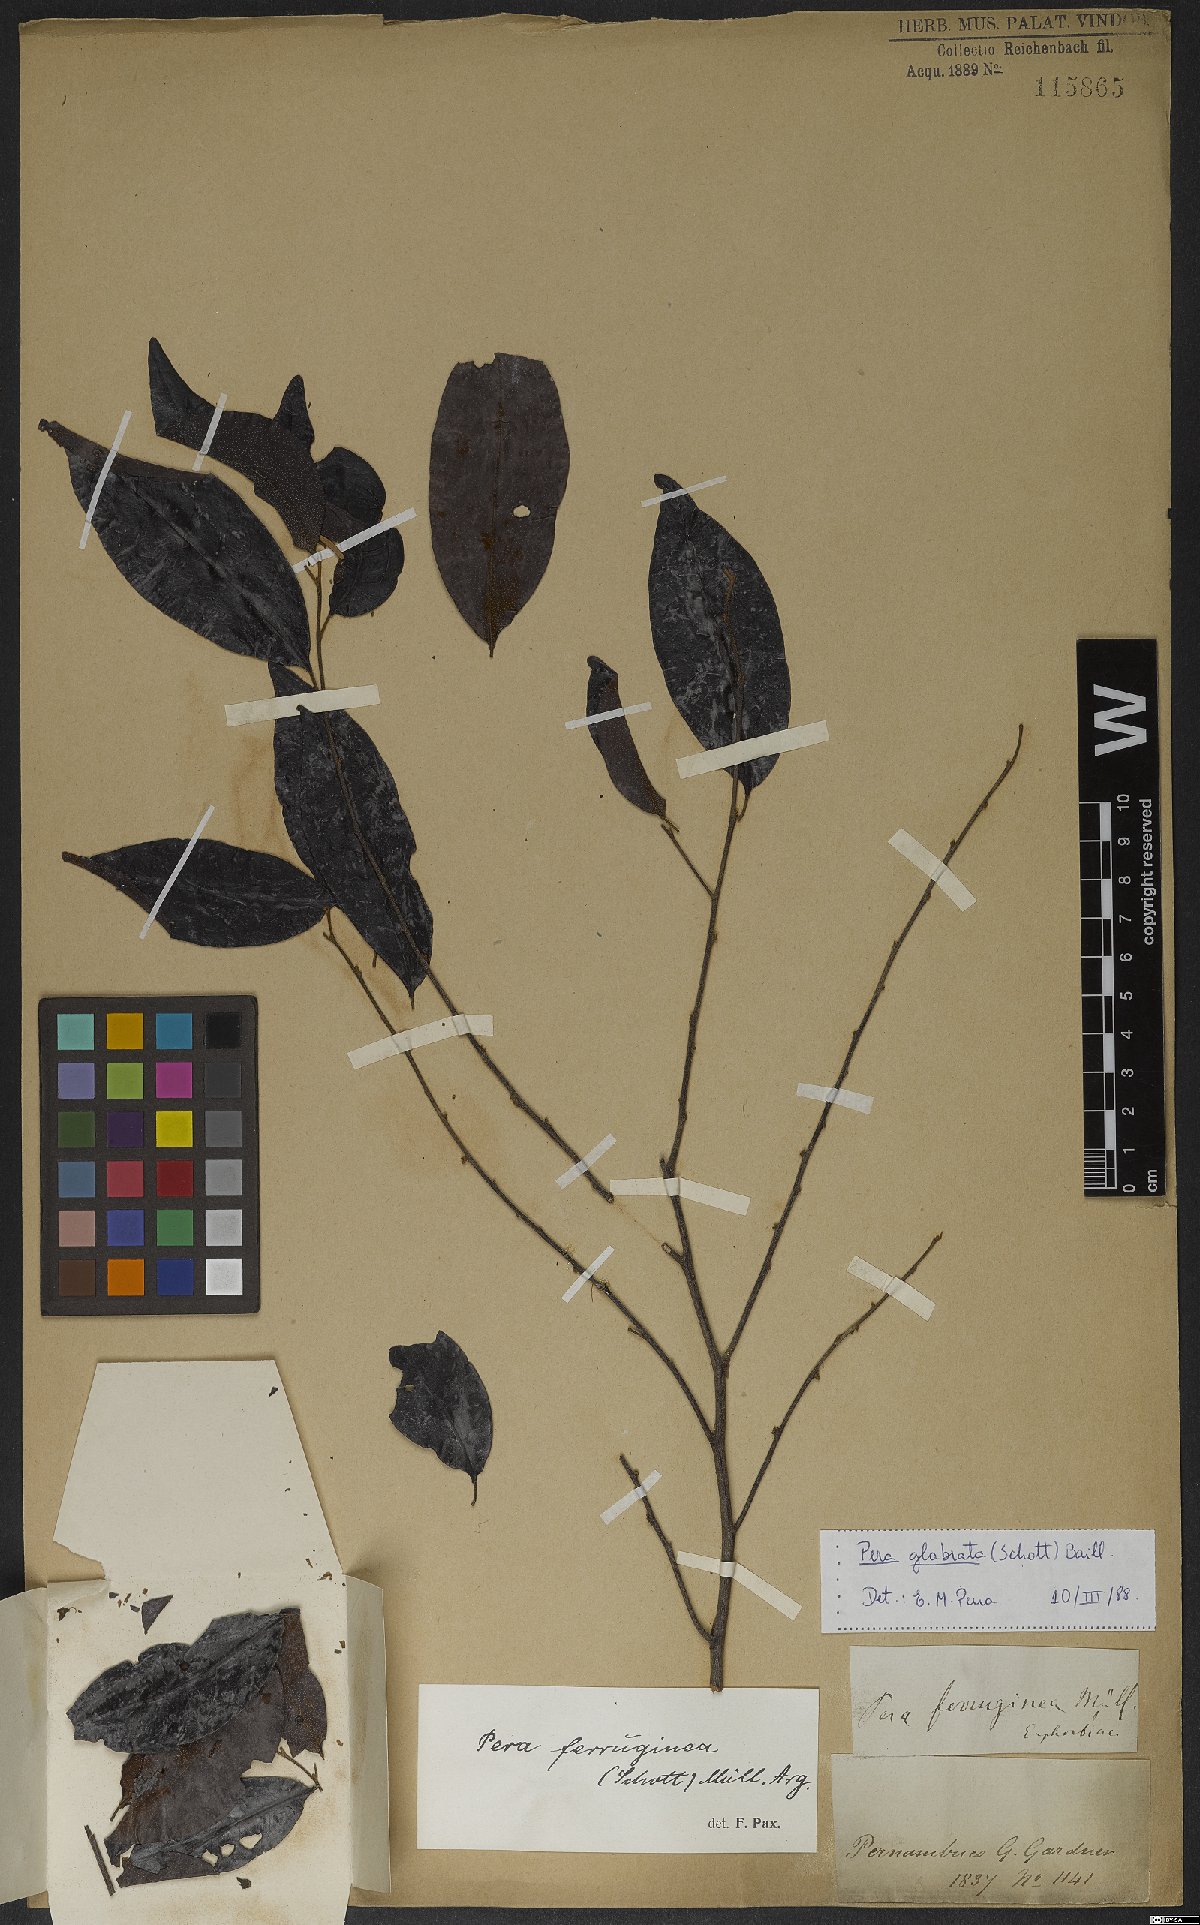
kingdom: Plantae
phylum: Tracheophyta
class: Magnoliopsida
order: Malpighiales
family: Peraceae
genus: Pera
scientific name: Pera glabrata
